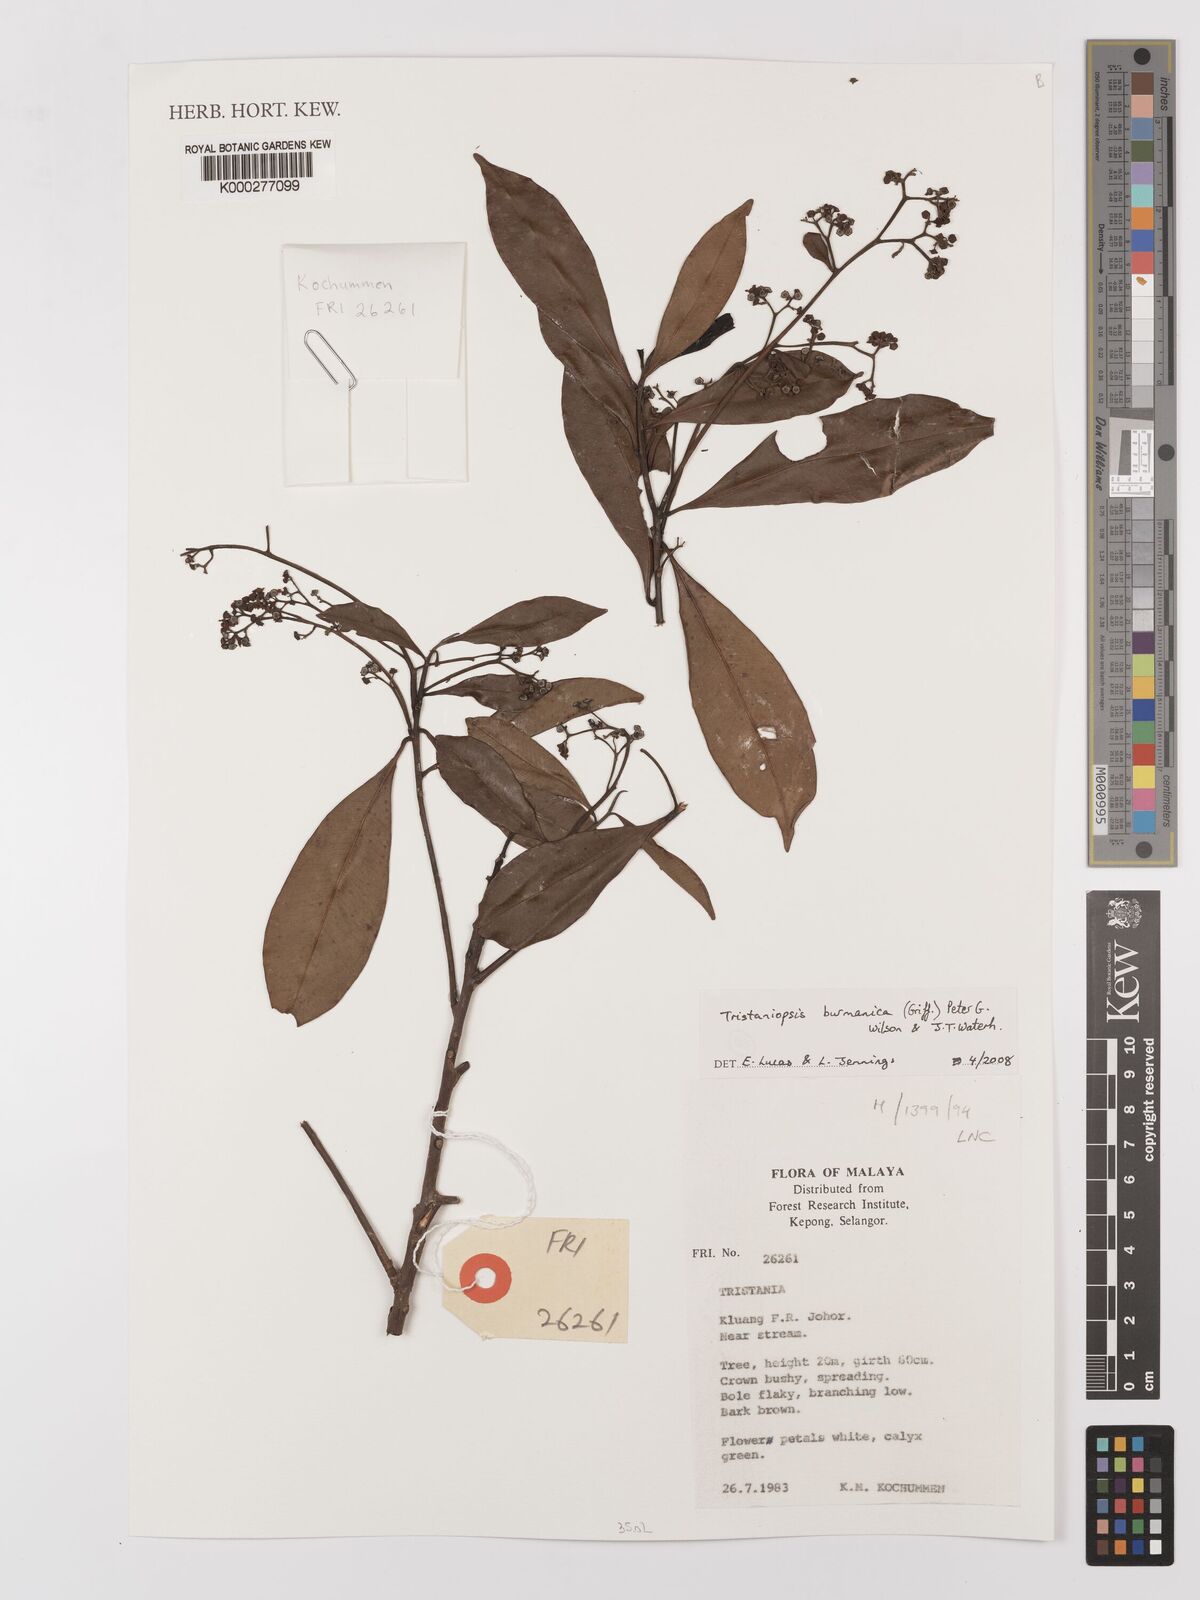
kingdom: Plantae
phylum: Tracheophyta
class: Magnoliopsida
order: Myrtales
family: Myrtaceae
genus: Tristaniopsis
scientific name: Tristaniopsis burmanica
